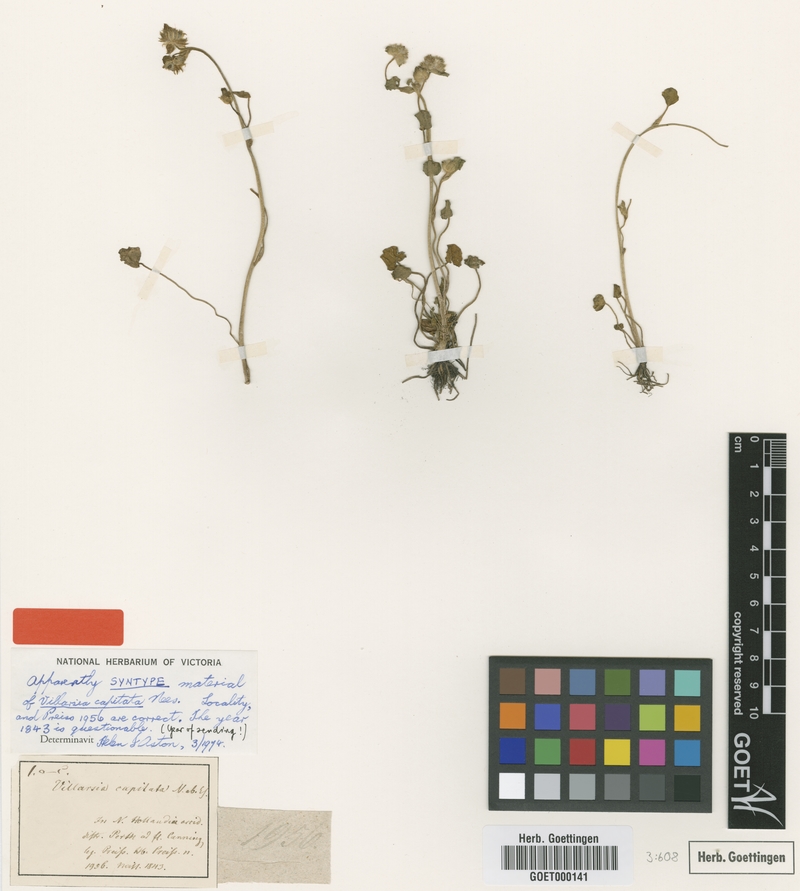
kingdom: Plantae
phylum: Tracheophyta
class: Magnoliopsida
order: Asterales
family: Menyanthaceae
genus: Liparophyllum
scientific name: Liparophyllum capitatum
